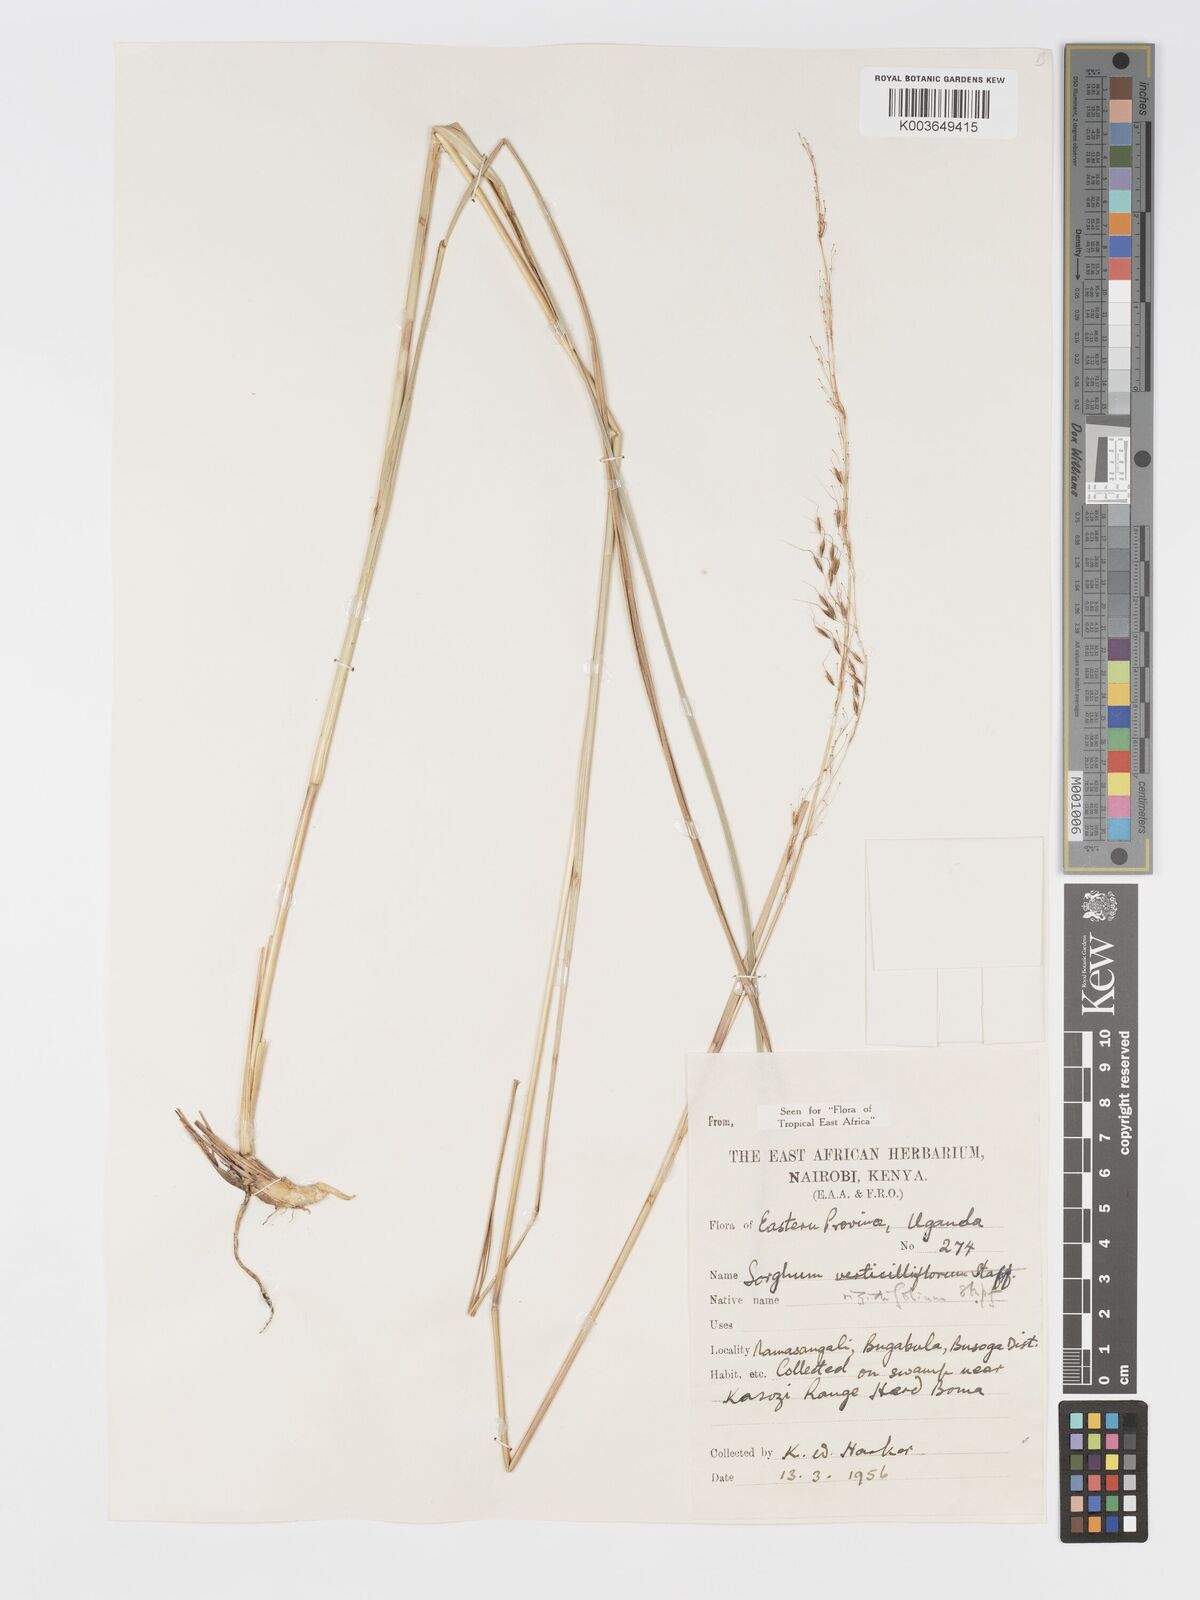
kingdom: Plantae
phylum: Tracheophyta
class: Liliopsida
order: Poales
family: Poaceae
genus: Sorghastrum
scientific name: Sorghastrum stipoides
